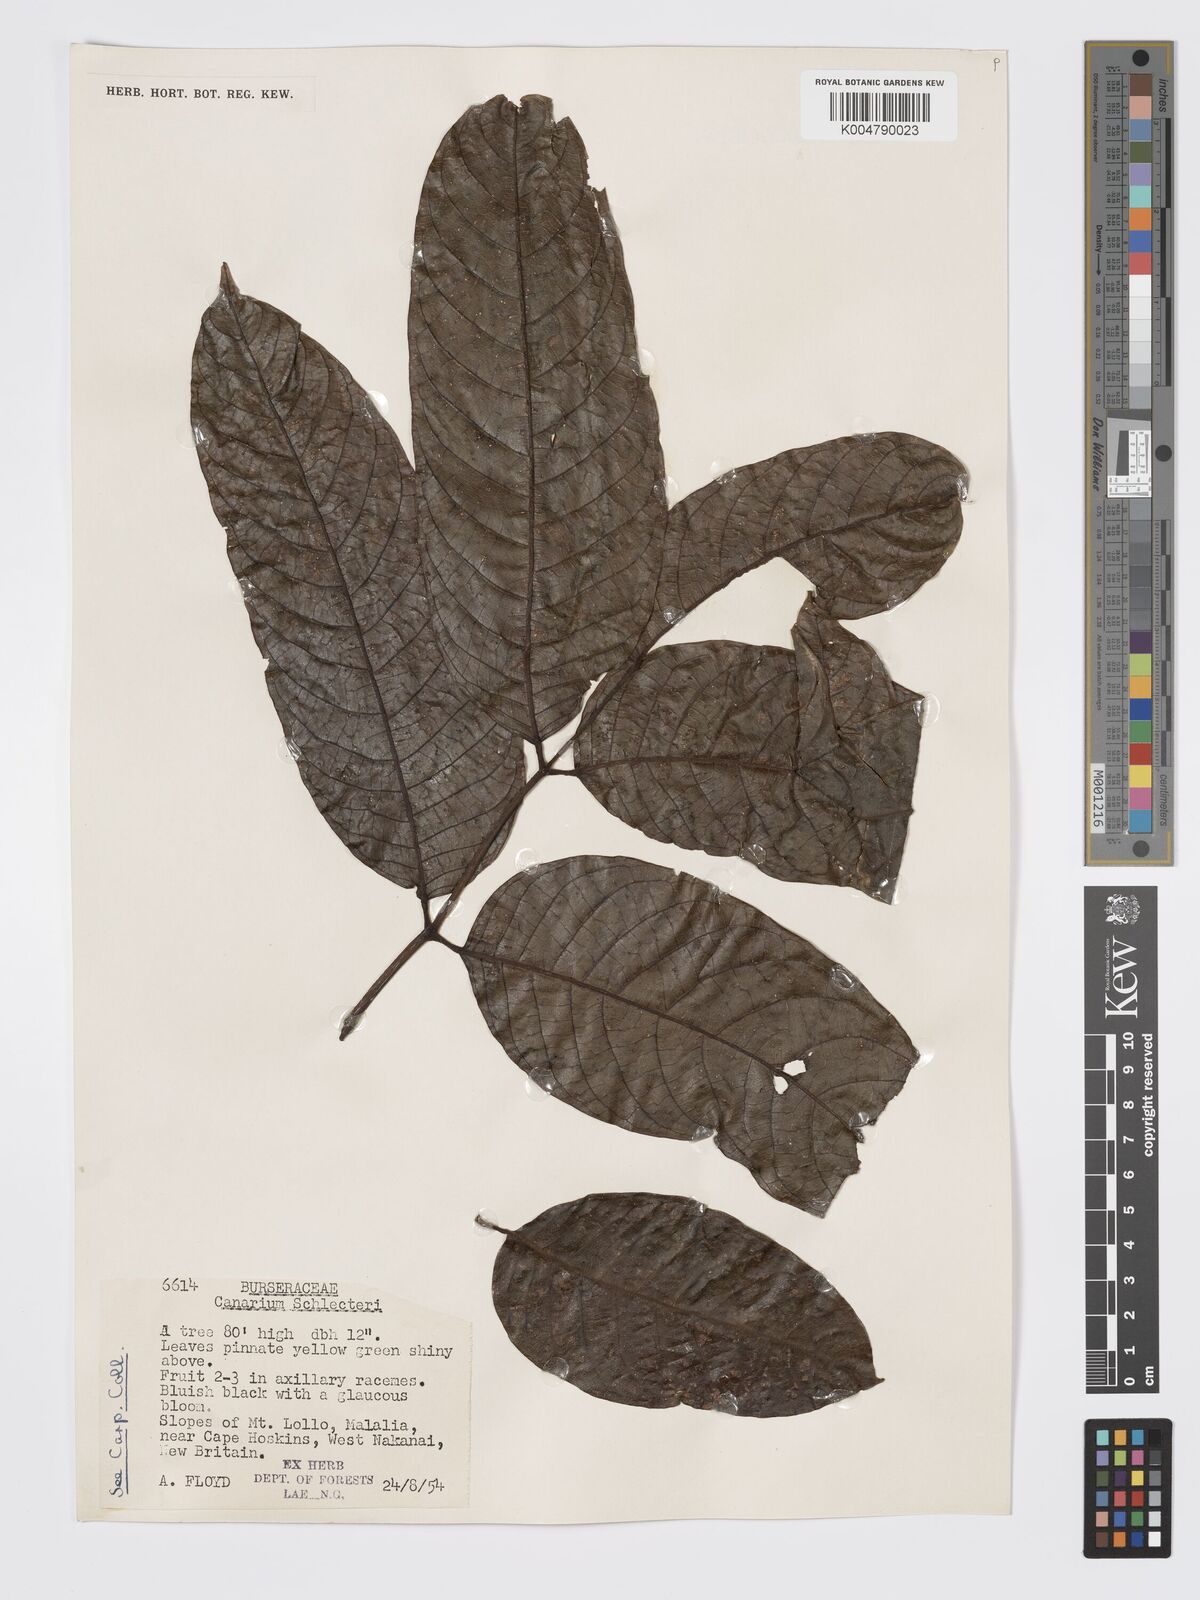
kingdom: Plantae
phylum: Tracheophyta
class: Magnoliopsida
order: Sapindales
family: Burseraceae
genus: Canarium
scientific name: Canarium schlechteri
